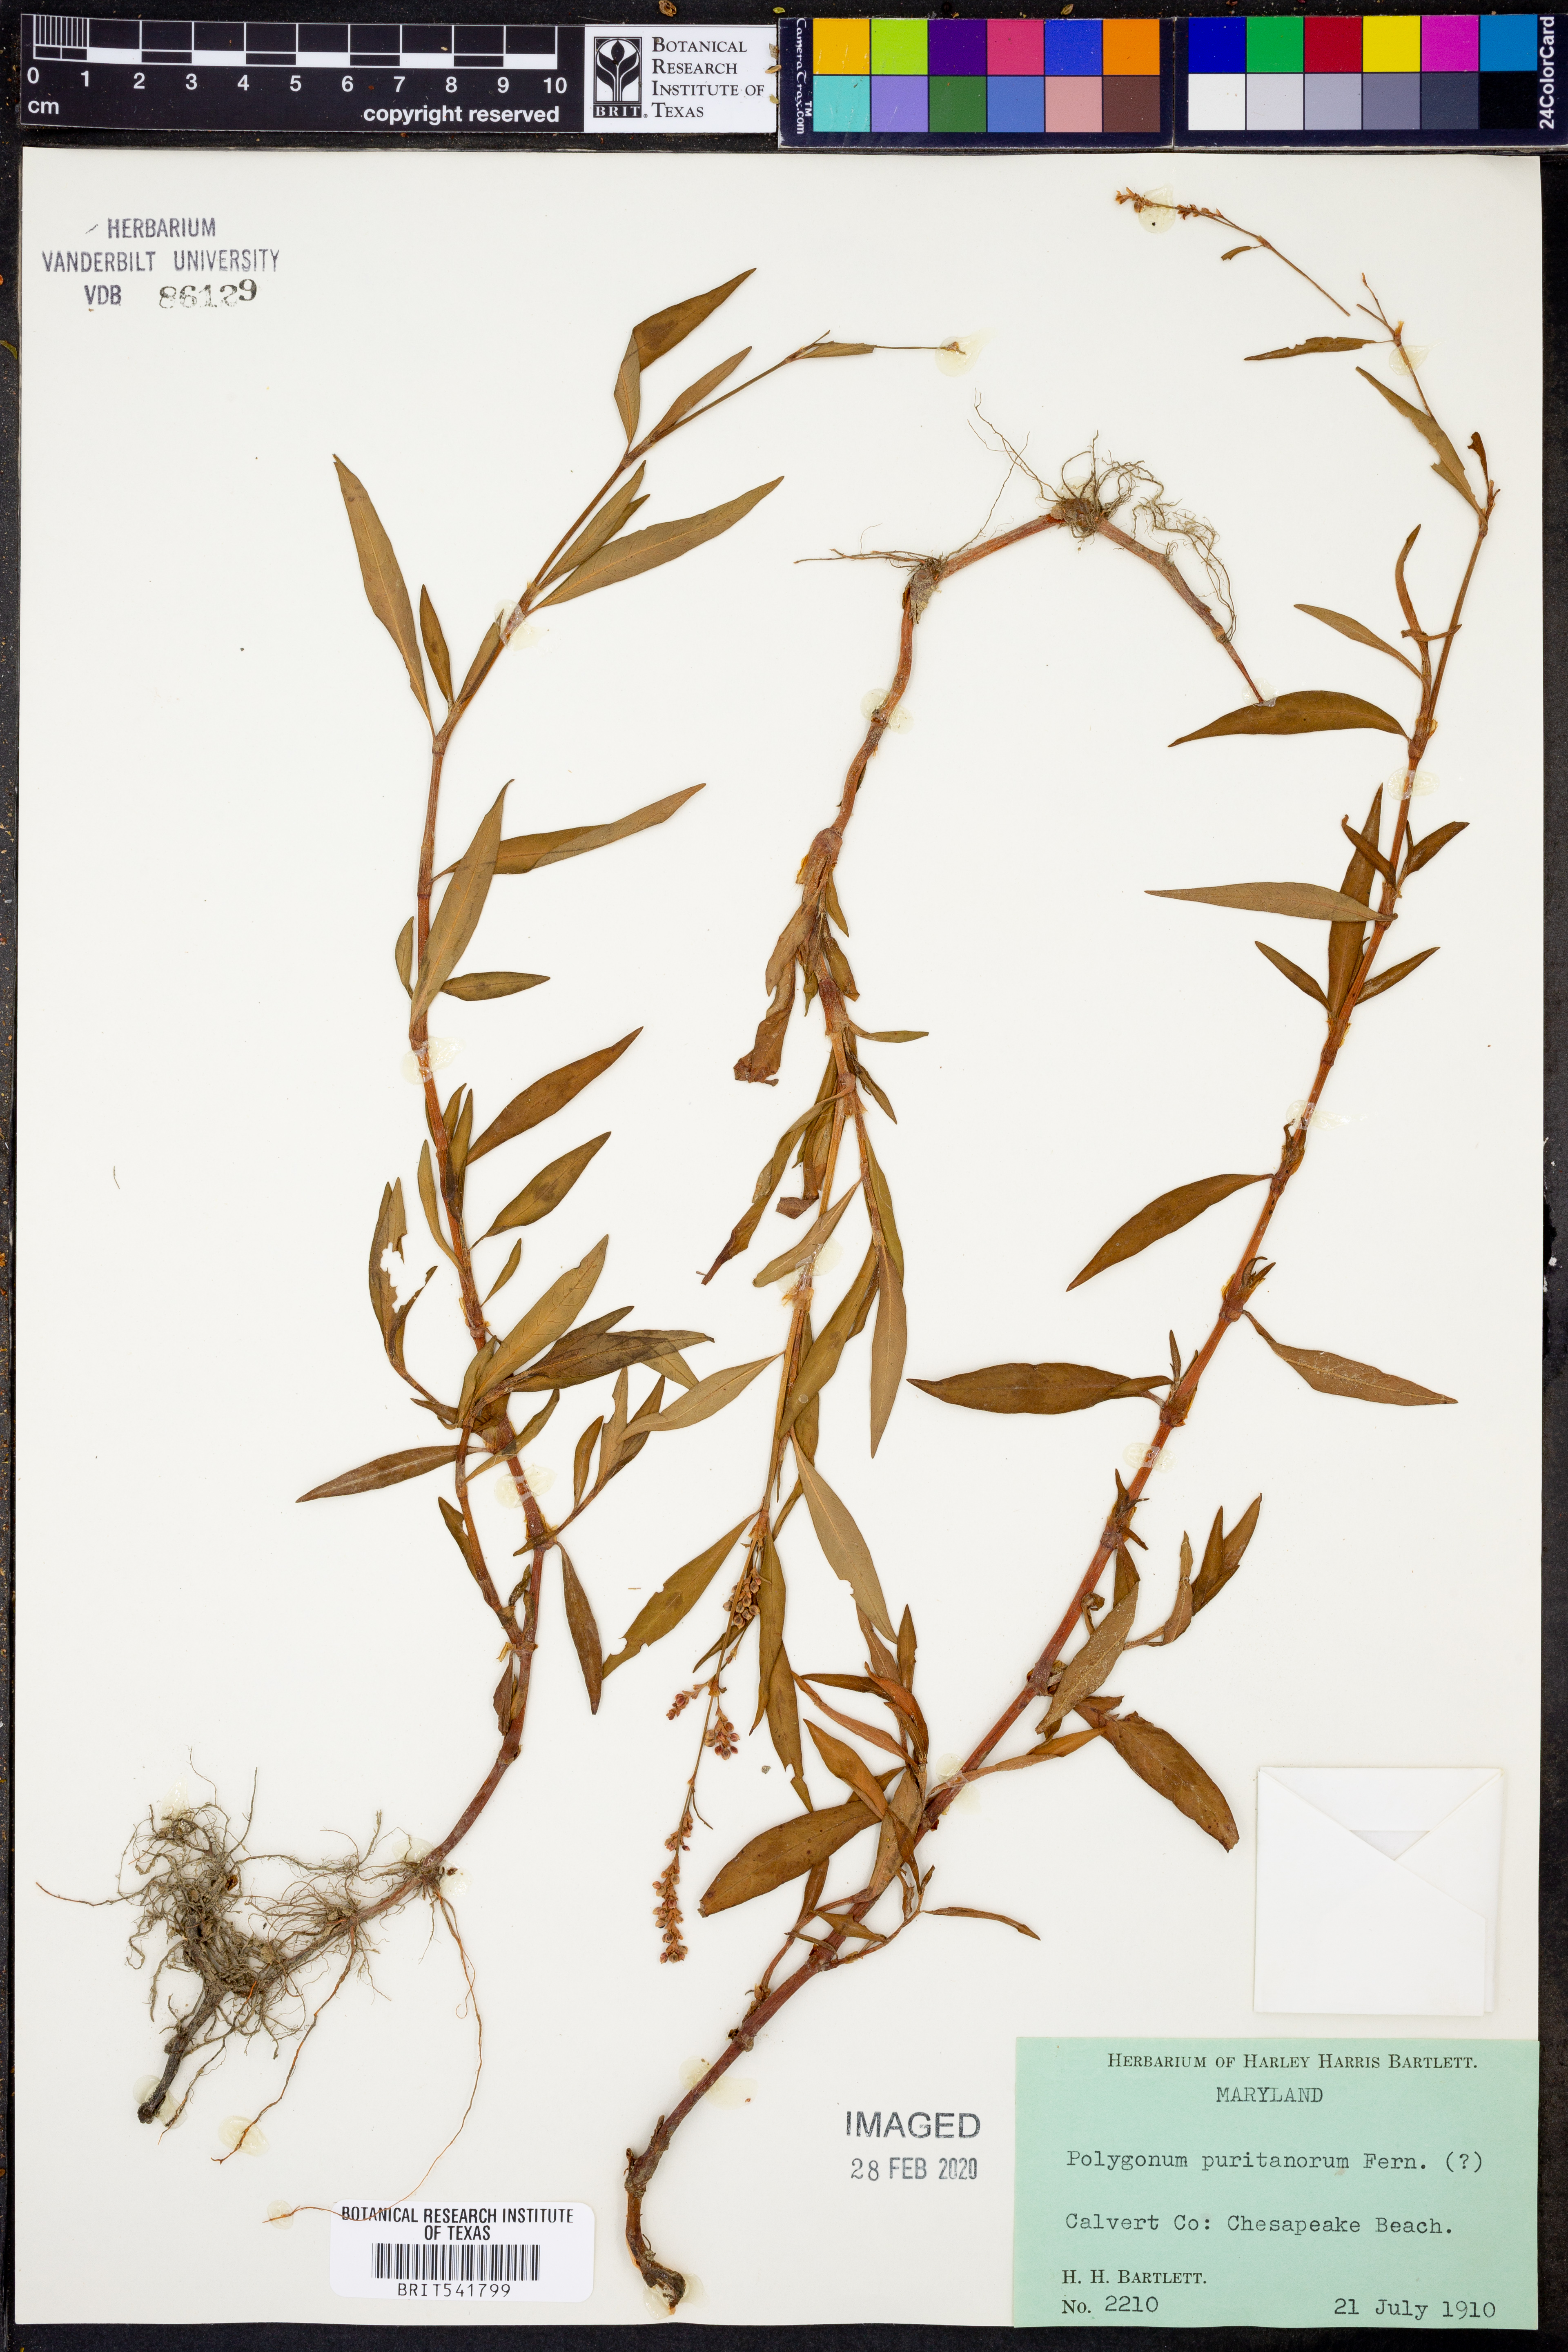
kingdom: Plantae
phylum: Tracheophyta
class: Magnoliopsida
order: Caryophyllales
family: Polygonaceae
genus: Persicaria
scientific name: Persicaria maculosa
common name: Redshank
